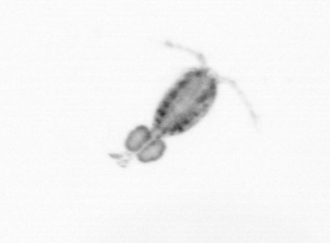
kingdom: Animalia
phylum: Arthropoda
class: Copepoda
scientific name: Copepoda
